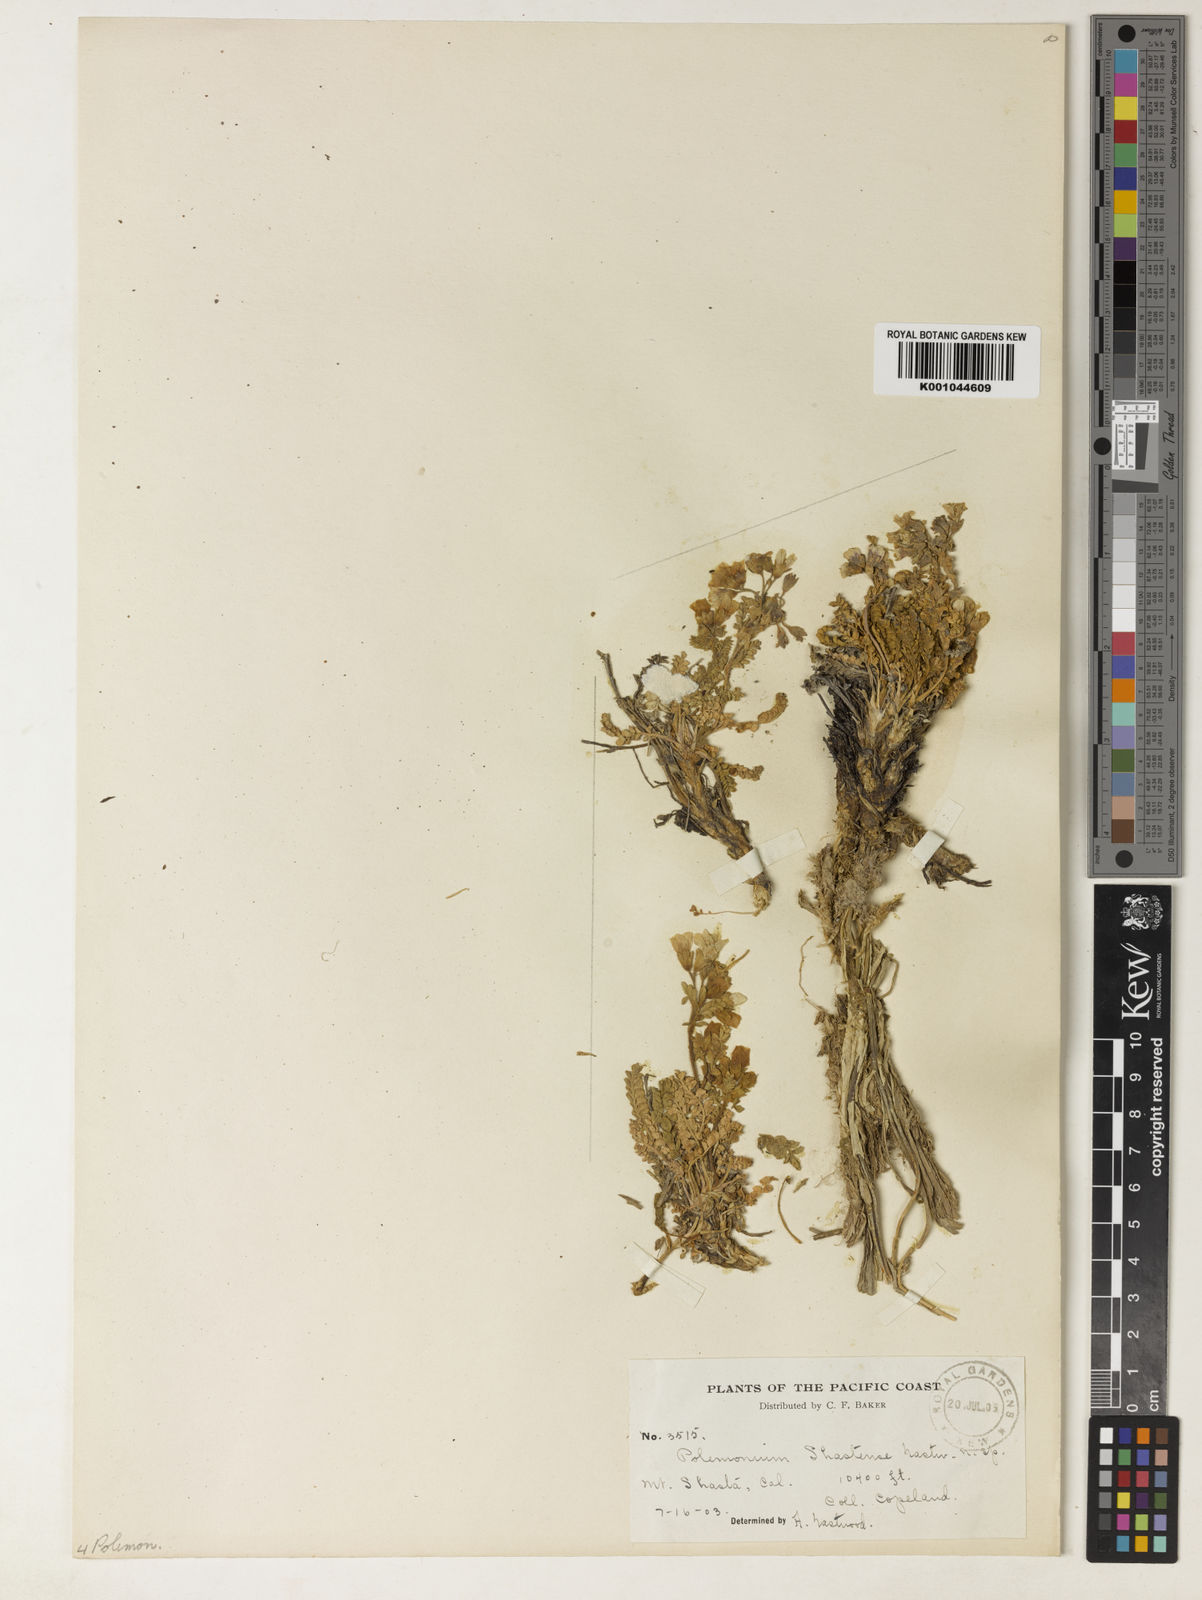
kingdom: Plantae
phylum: Tracheophyta
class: Magnoliopsida
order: Ericales
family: Polemoniaceae
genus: Polemonium
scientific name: Polemonium pulcherrimum
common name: Short jacob's-ladder
